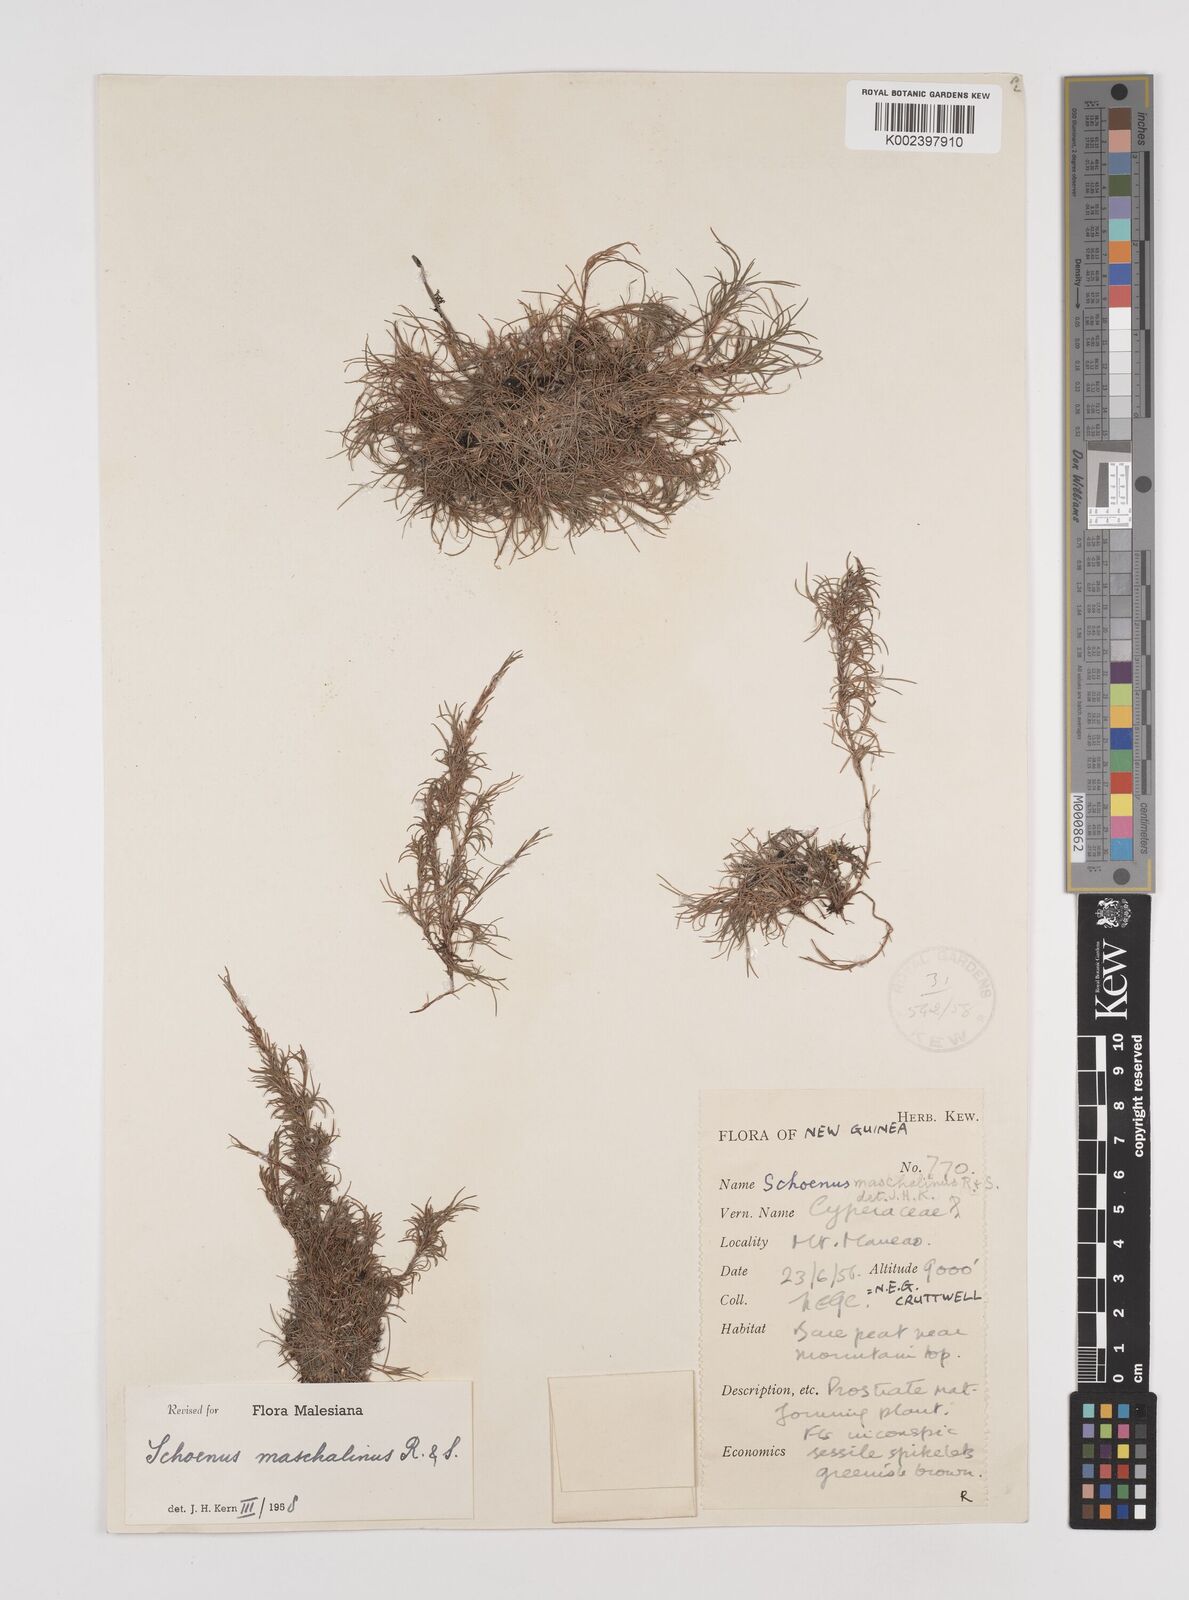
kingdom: Plantae
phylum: Tracheophyta
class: Liliopsida
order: Poales
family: Cyperaceae
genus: Schoenus
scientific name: Schoenus maschalinus
